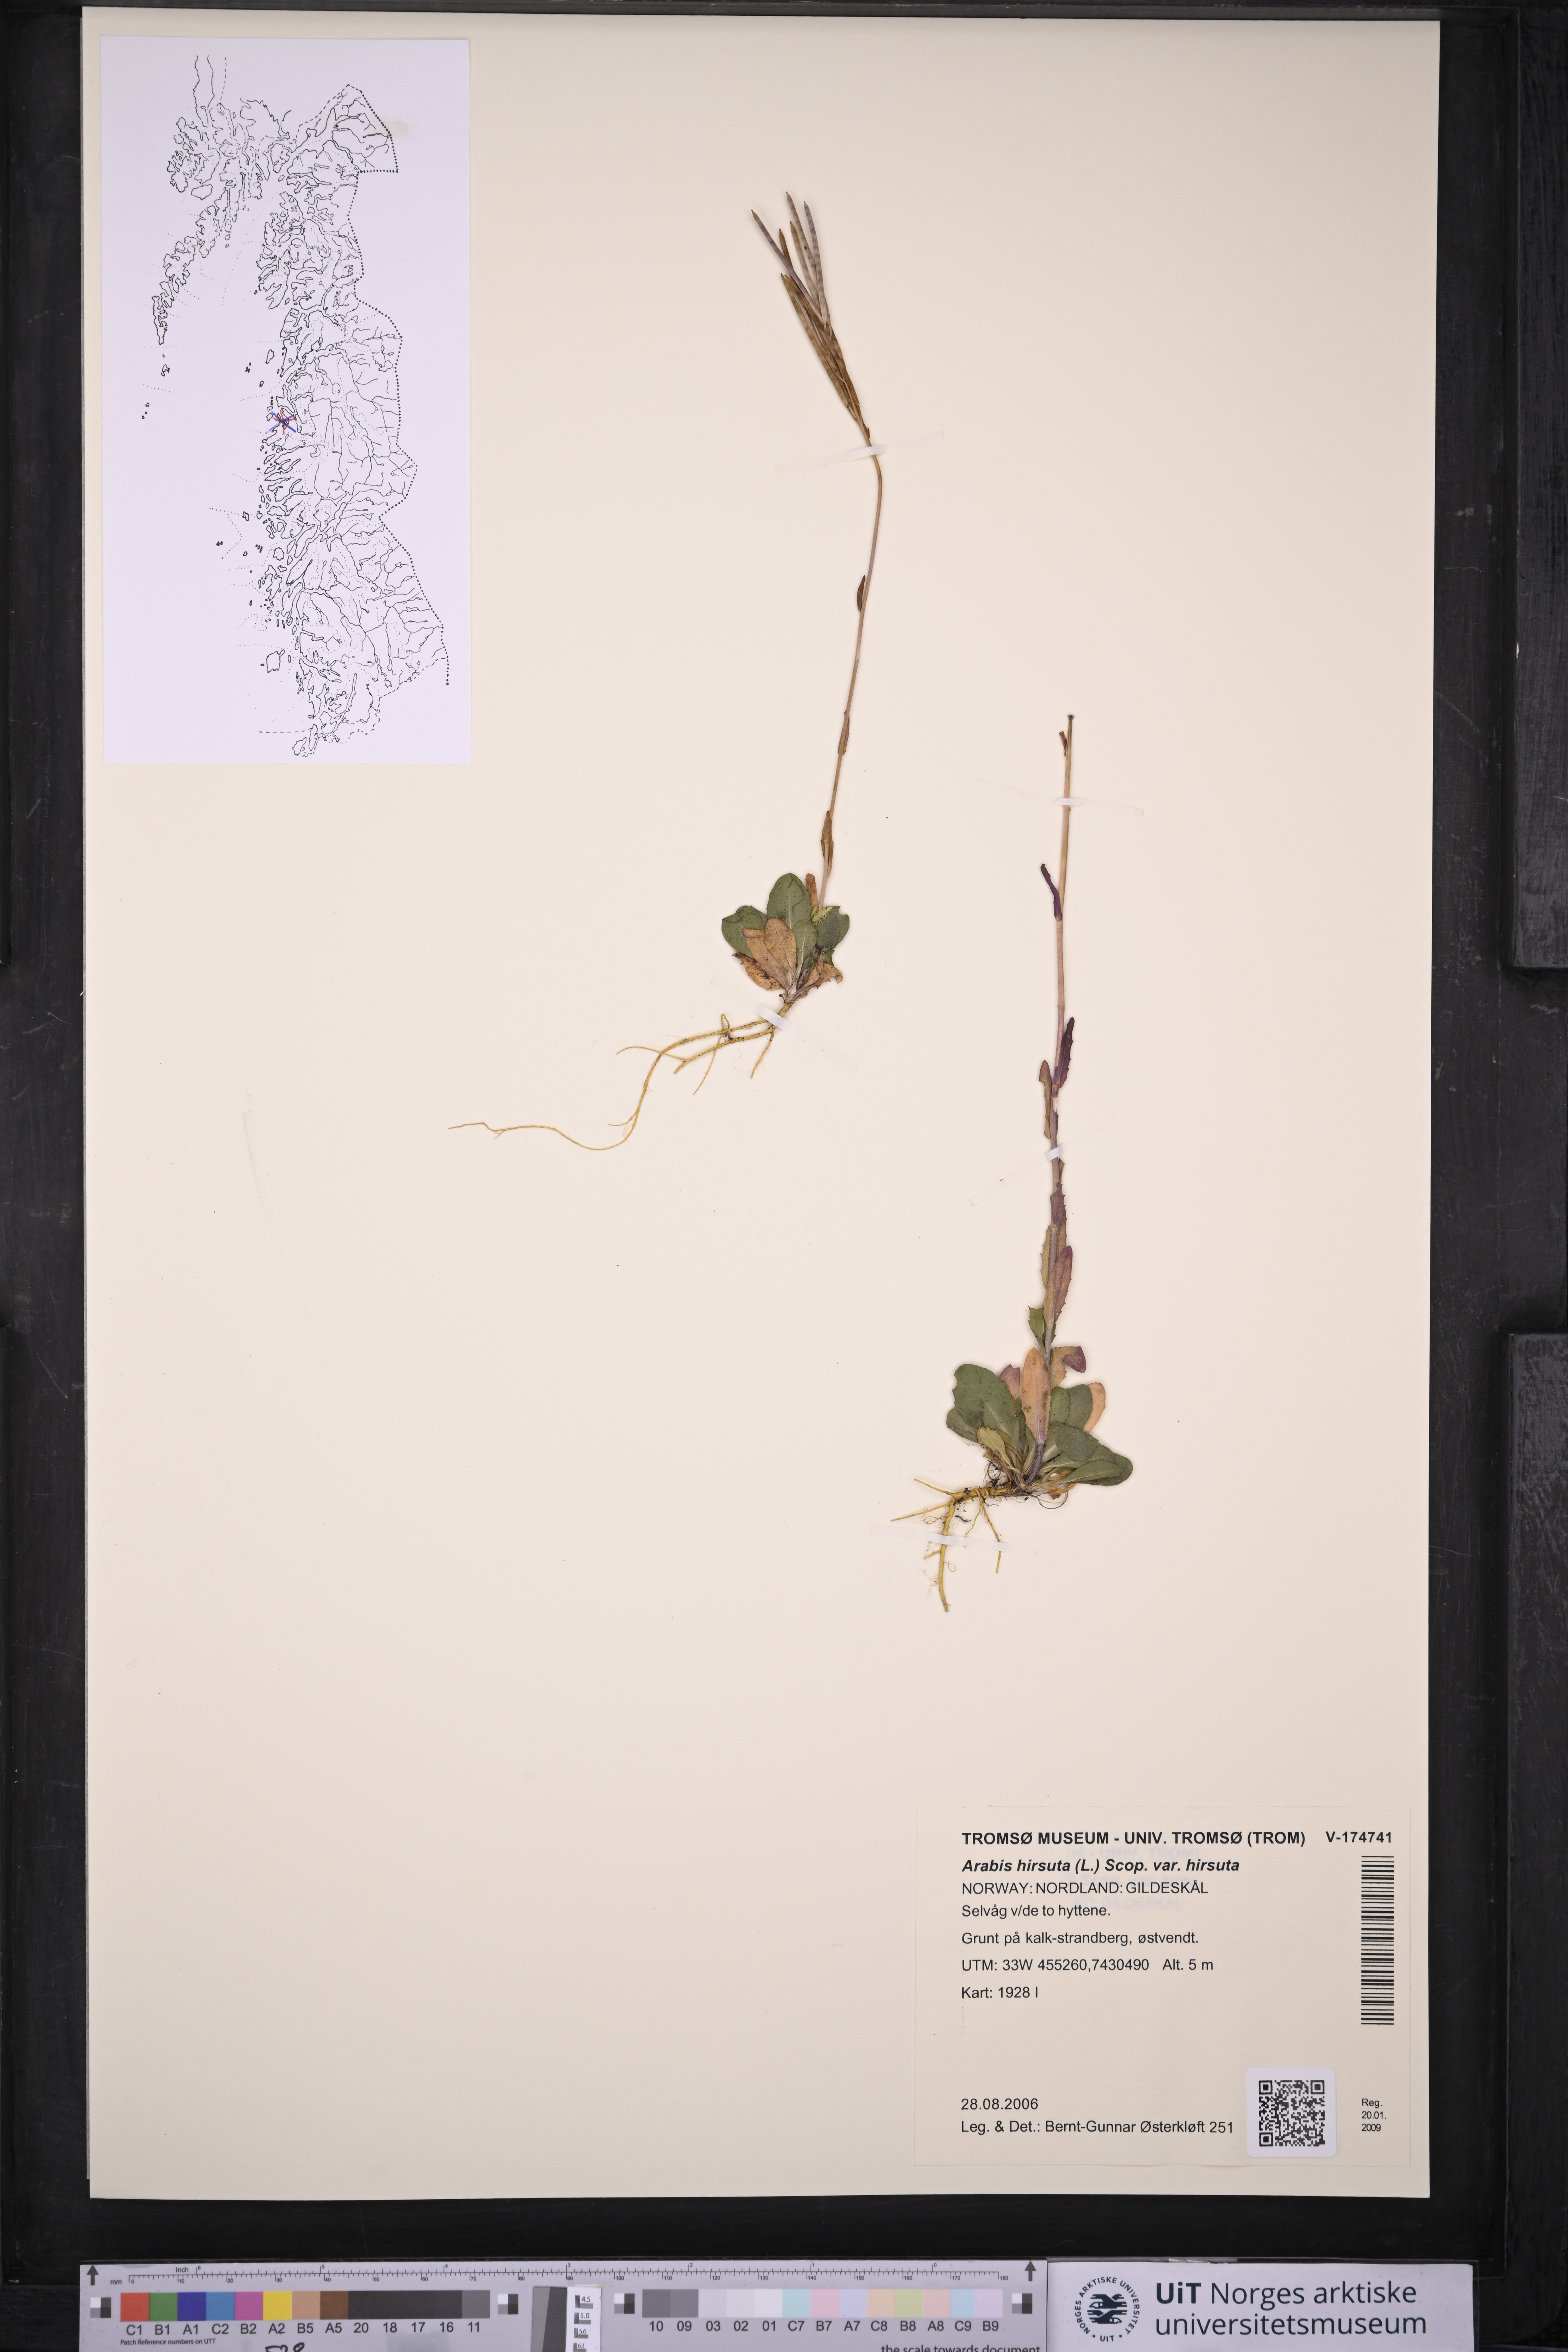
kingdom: Plantae
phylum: Tracheophyta
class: Magnoliopsida
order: Brassicales
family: Brassicaceae
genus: Arabis
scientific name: Arabis hirsuta
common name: Hairy rock-cress
